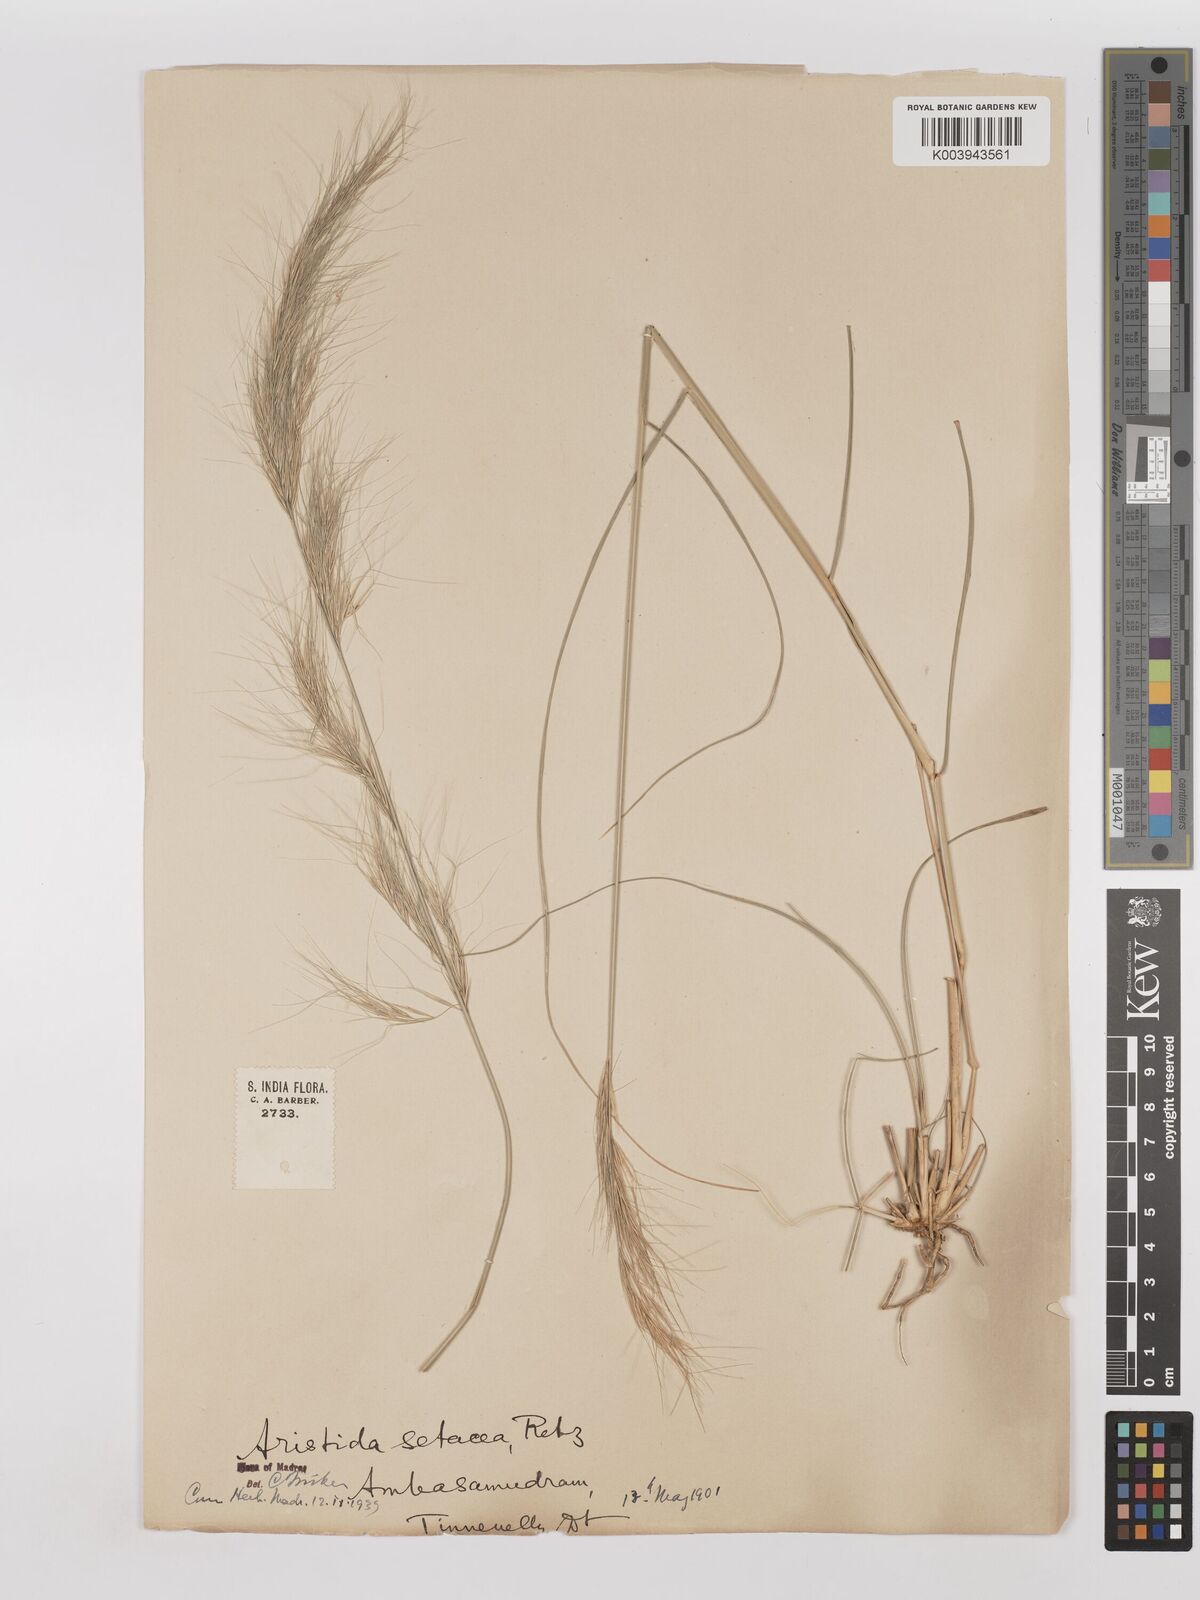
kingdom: Plantae
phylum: Tracheophyta
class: Liliopsida
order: Poales
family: Poaceae
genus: Aristida
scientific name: Aristida setacea
